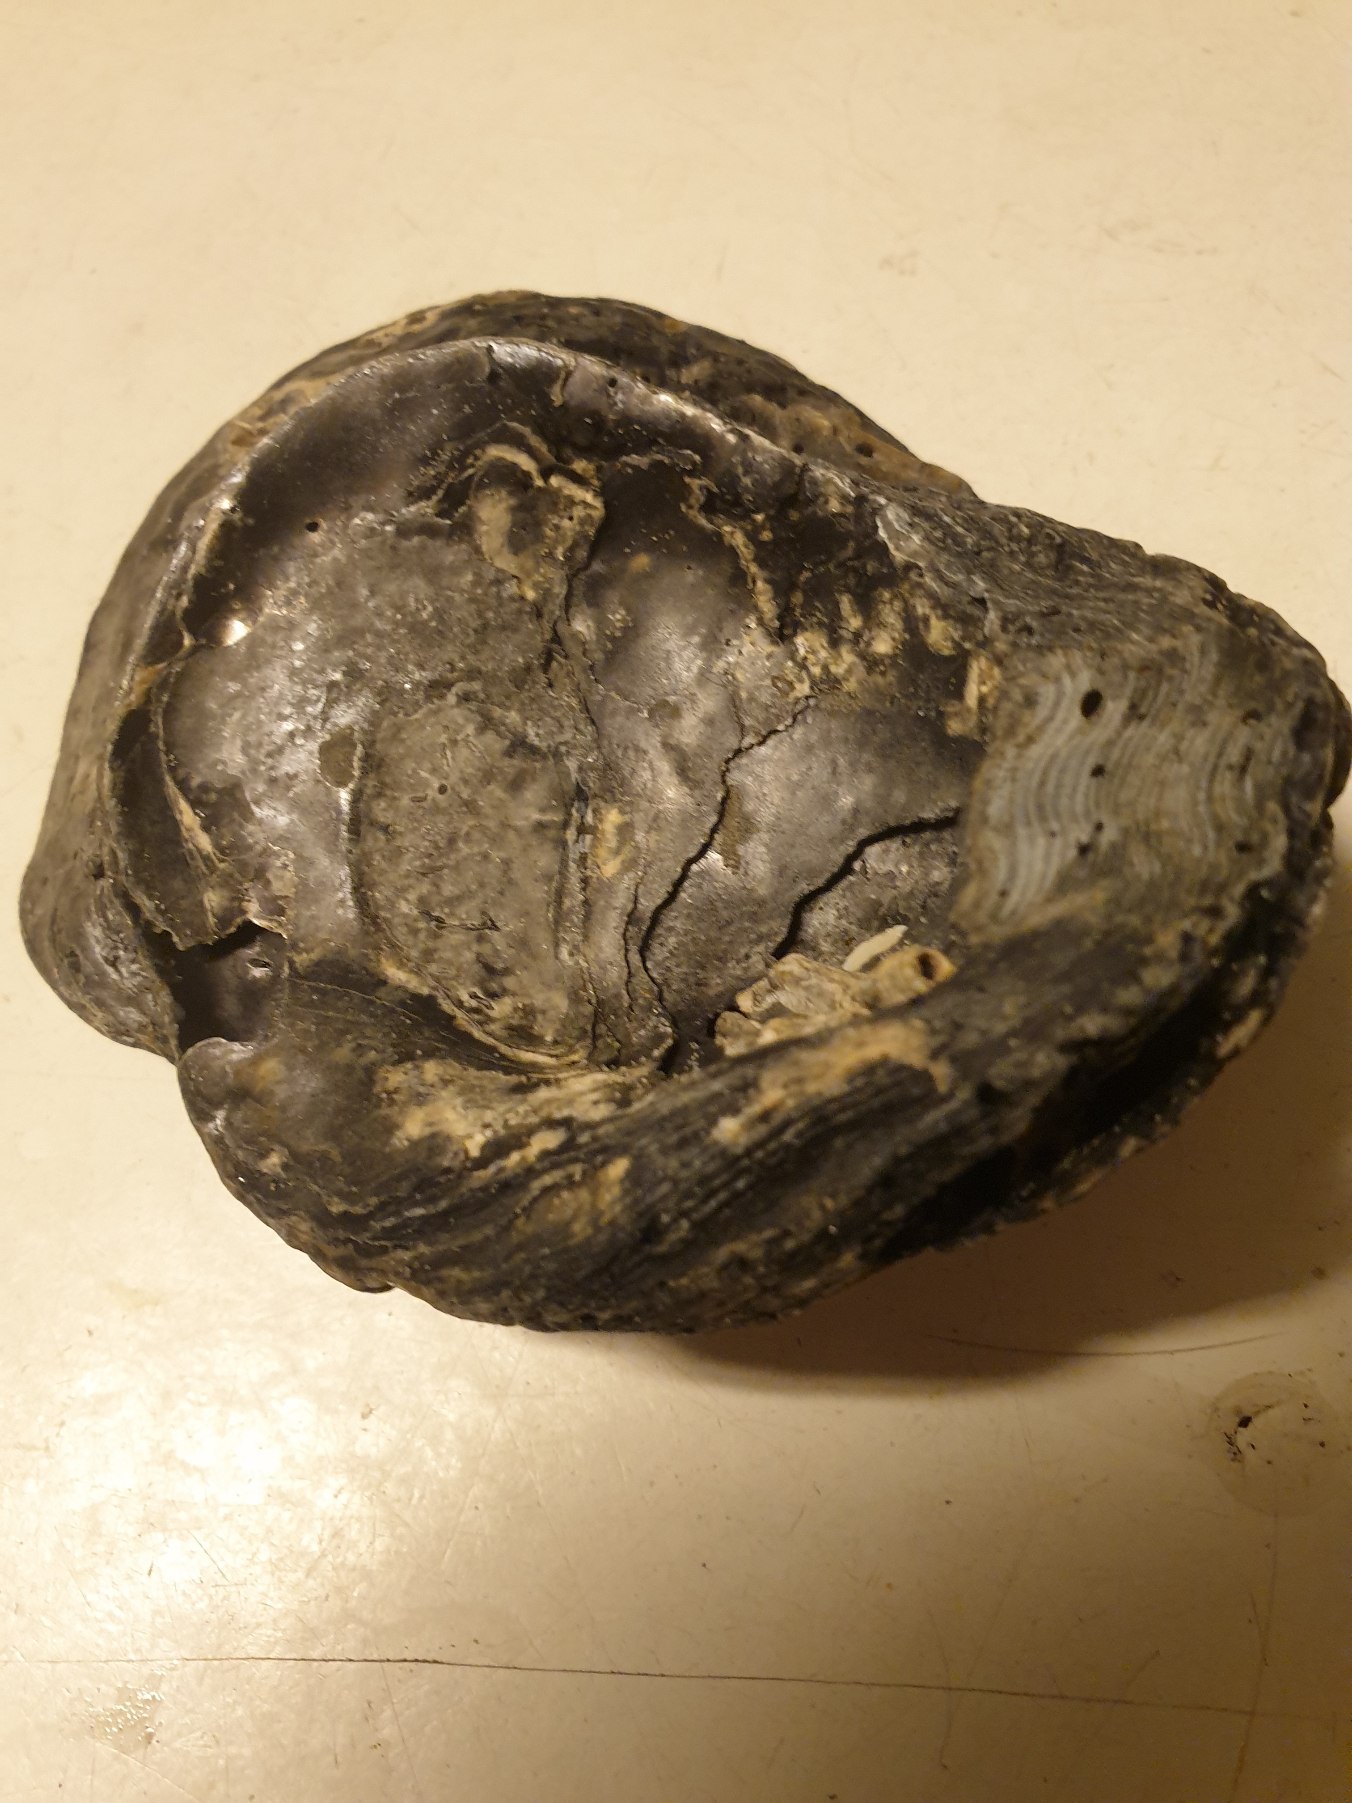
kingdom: Animalia
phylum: Mollusca
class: Bivalvia
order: Ostreida
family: Ostreidae
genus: Ostrea
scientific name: Ostrea edulis
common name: Østers
